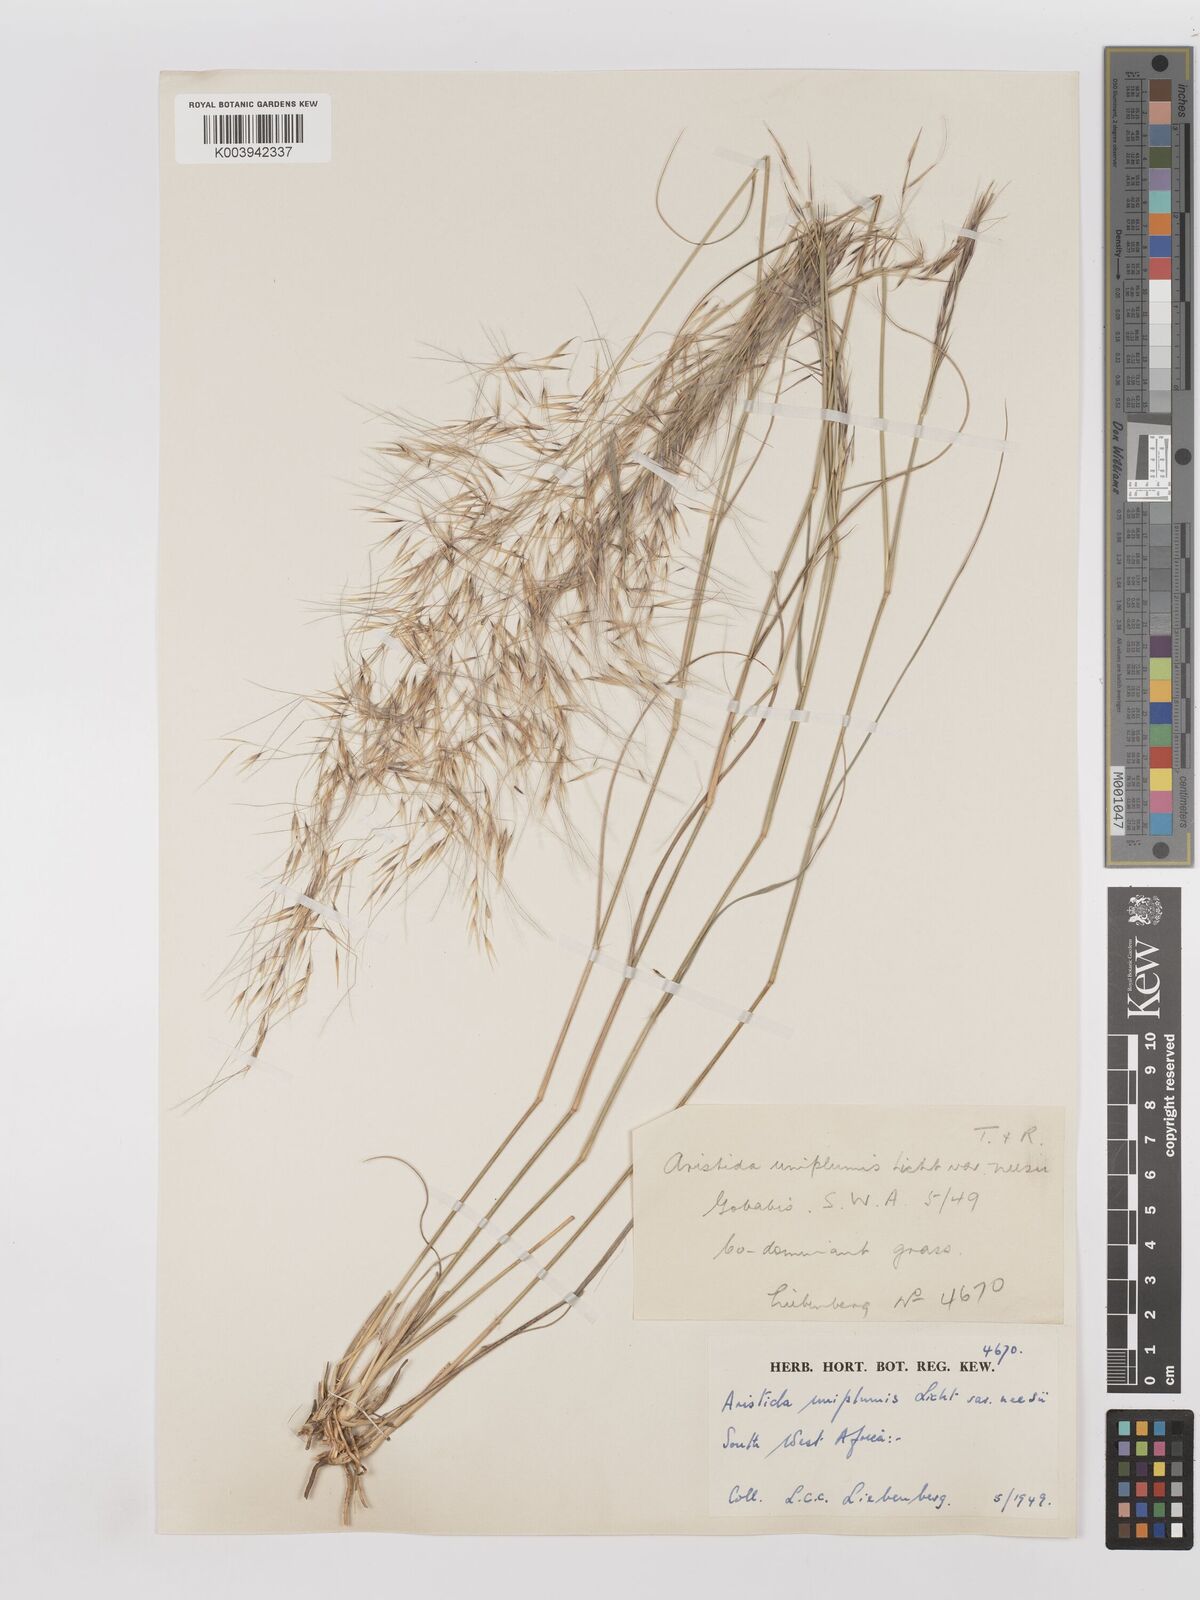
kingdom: Plantae
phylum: Tracheophyta
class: Liliopsida
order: Poales
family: Poaceae
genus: Stipagrostis
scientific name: Stipagrostis uniplumis
